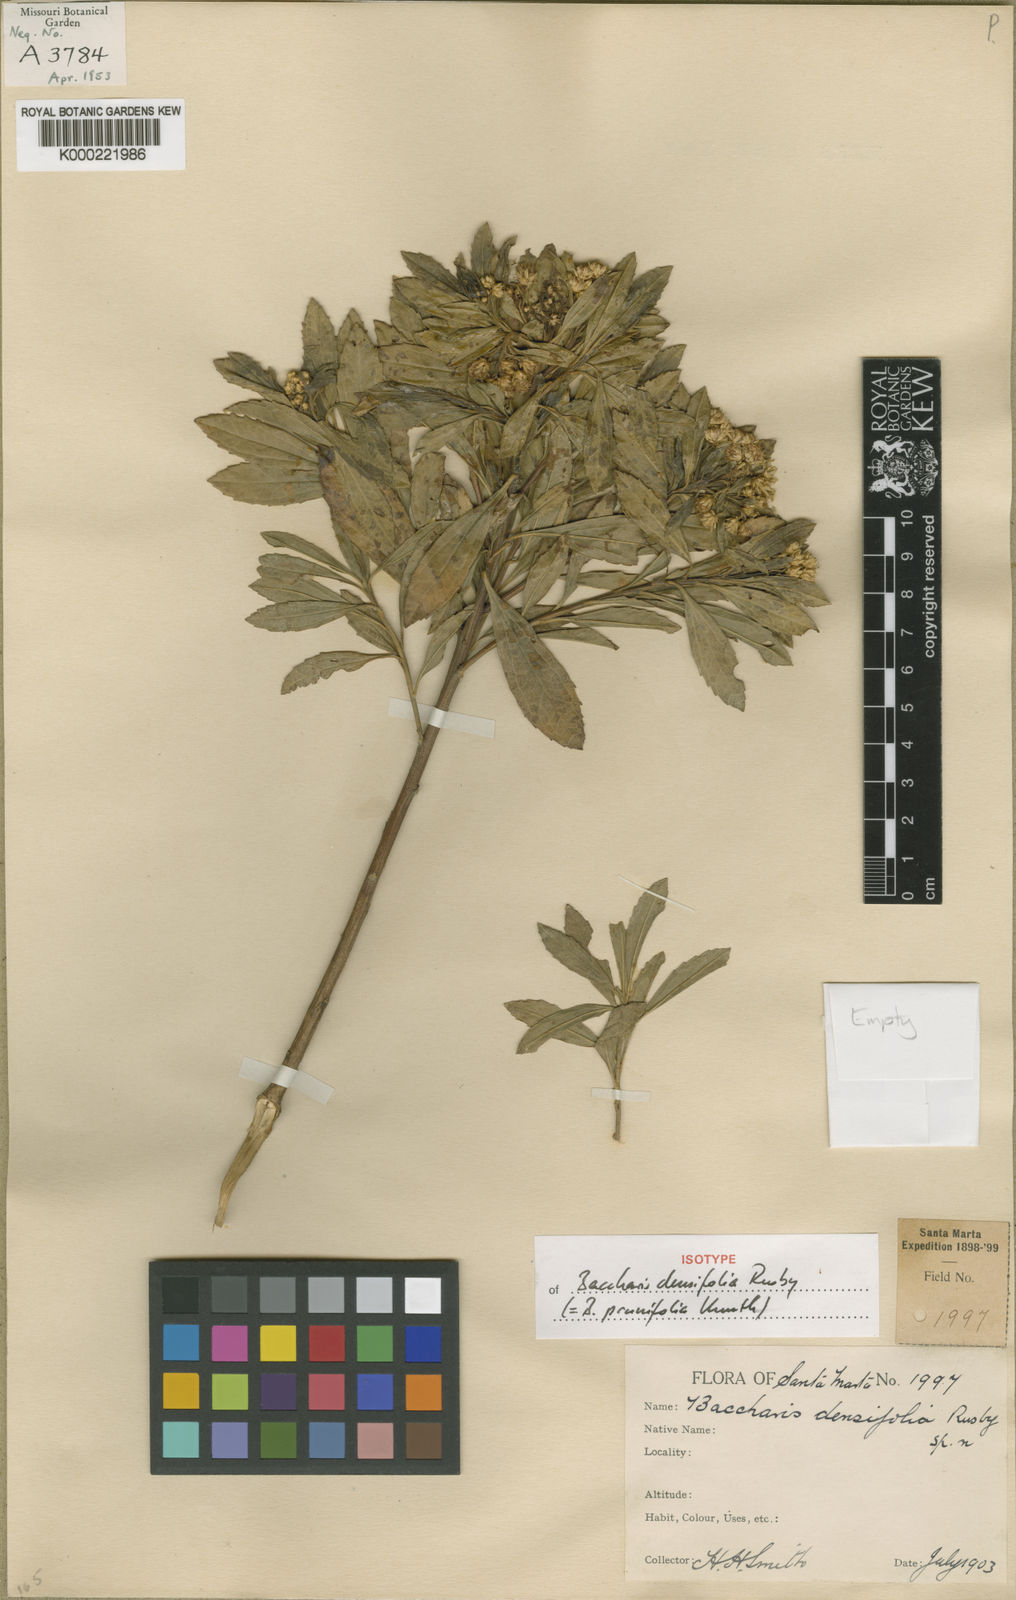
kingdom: Plantae
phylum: Tracheophyta
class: Magnoliopsida
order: Asterales
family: Asteraceae
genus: Baccharis
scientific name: Baccharis prunifolia
